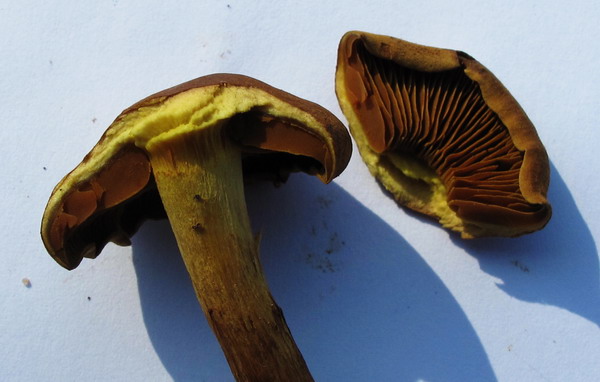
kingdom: Fungi
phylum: Basidiomycota
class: Agaricomycetes
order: Agaricales
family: Cortinariaceae
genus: Cortinarius
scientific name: Cortinarius malicorius
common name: grønkødet slørhat
